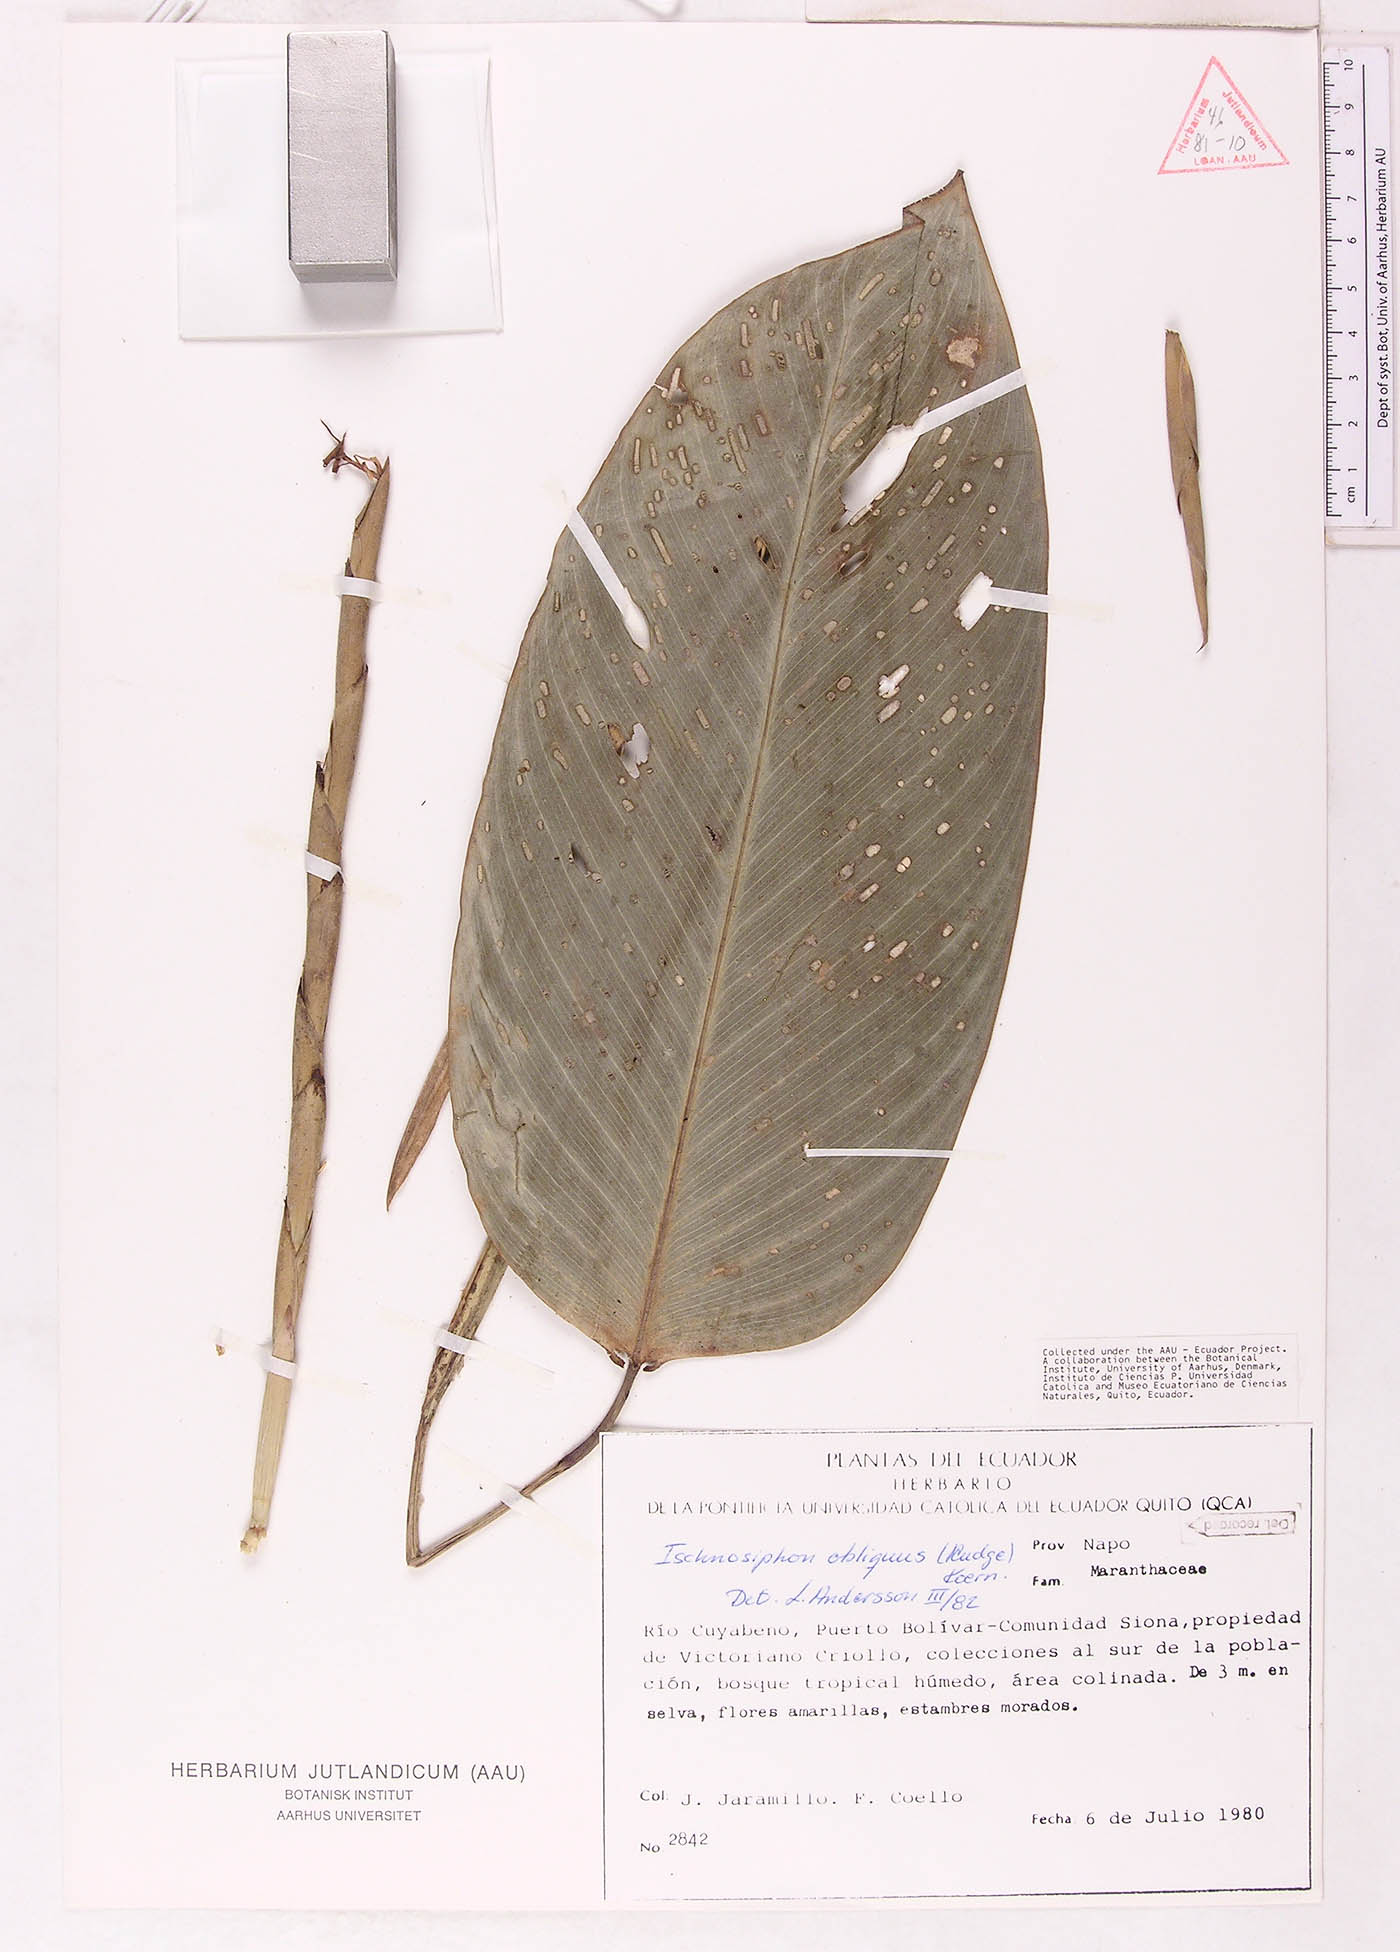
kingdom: Plantae
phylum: Tracheophyta
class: Liliopsida
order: Zingiberales
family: Marantaceae
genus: Ischnosiphon
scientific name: Ischnosiphon obliquus
